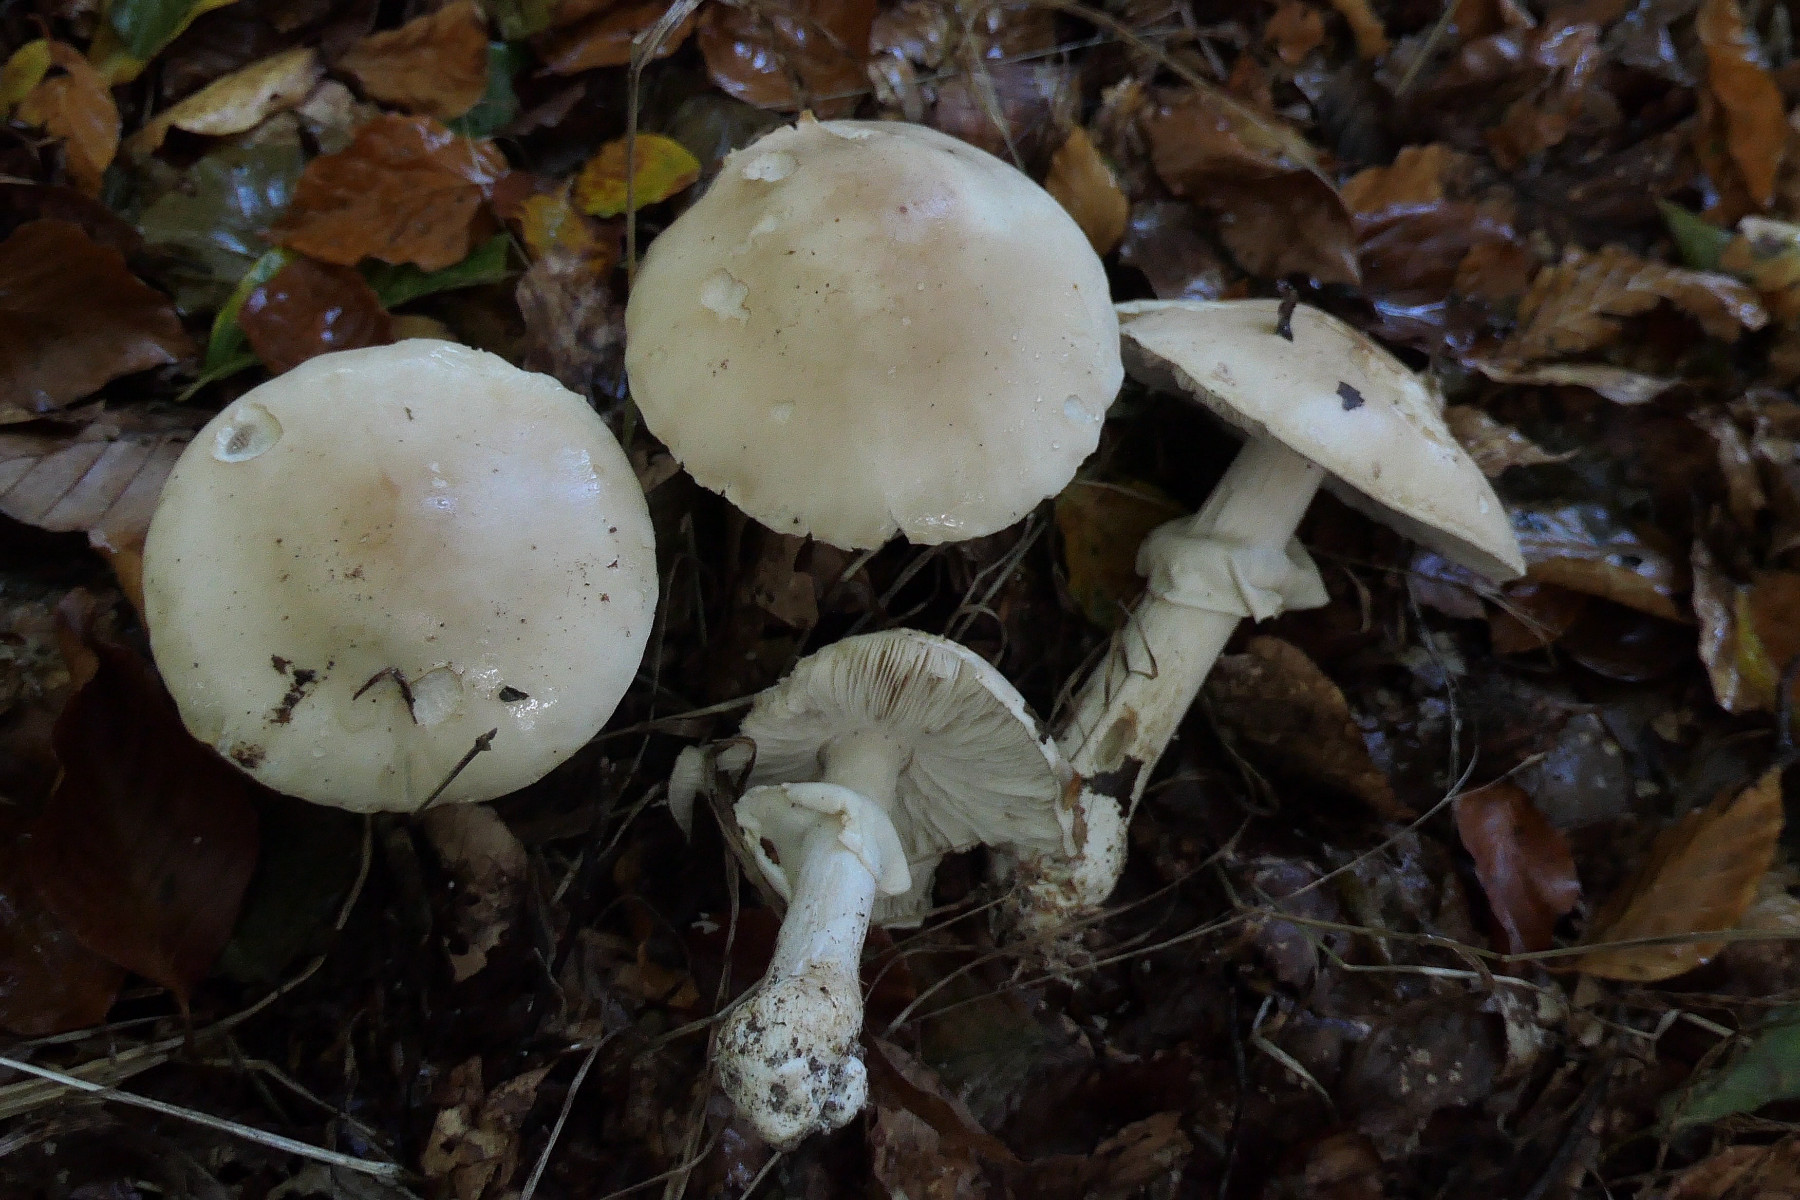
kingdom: Fungi
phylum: Basidiomycota
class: Agaricomycetes
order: Agaricales
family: Amanitaceae
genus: Limacellopsis
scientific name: Limacellopsis guttata
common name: tåre-snekkehat
